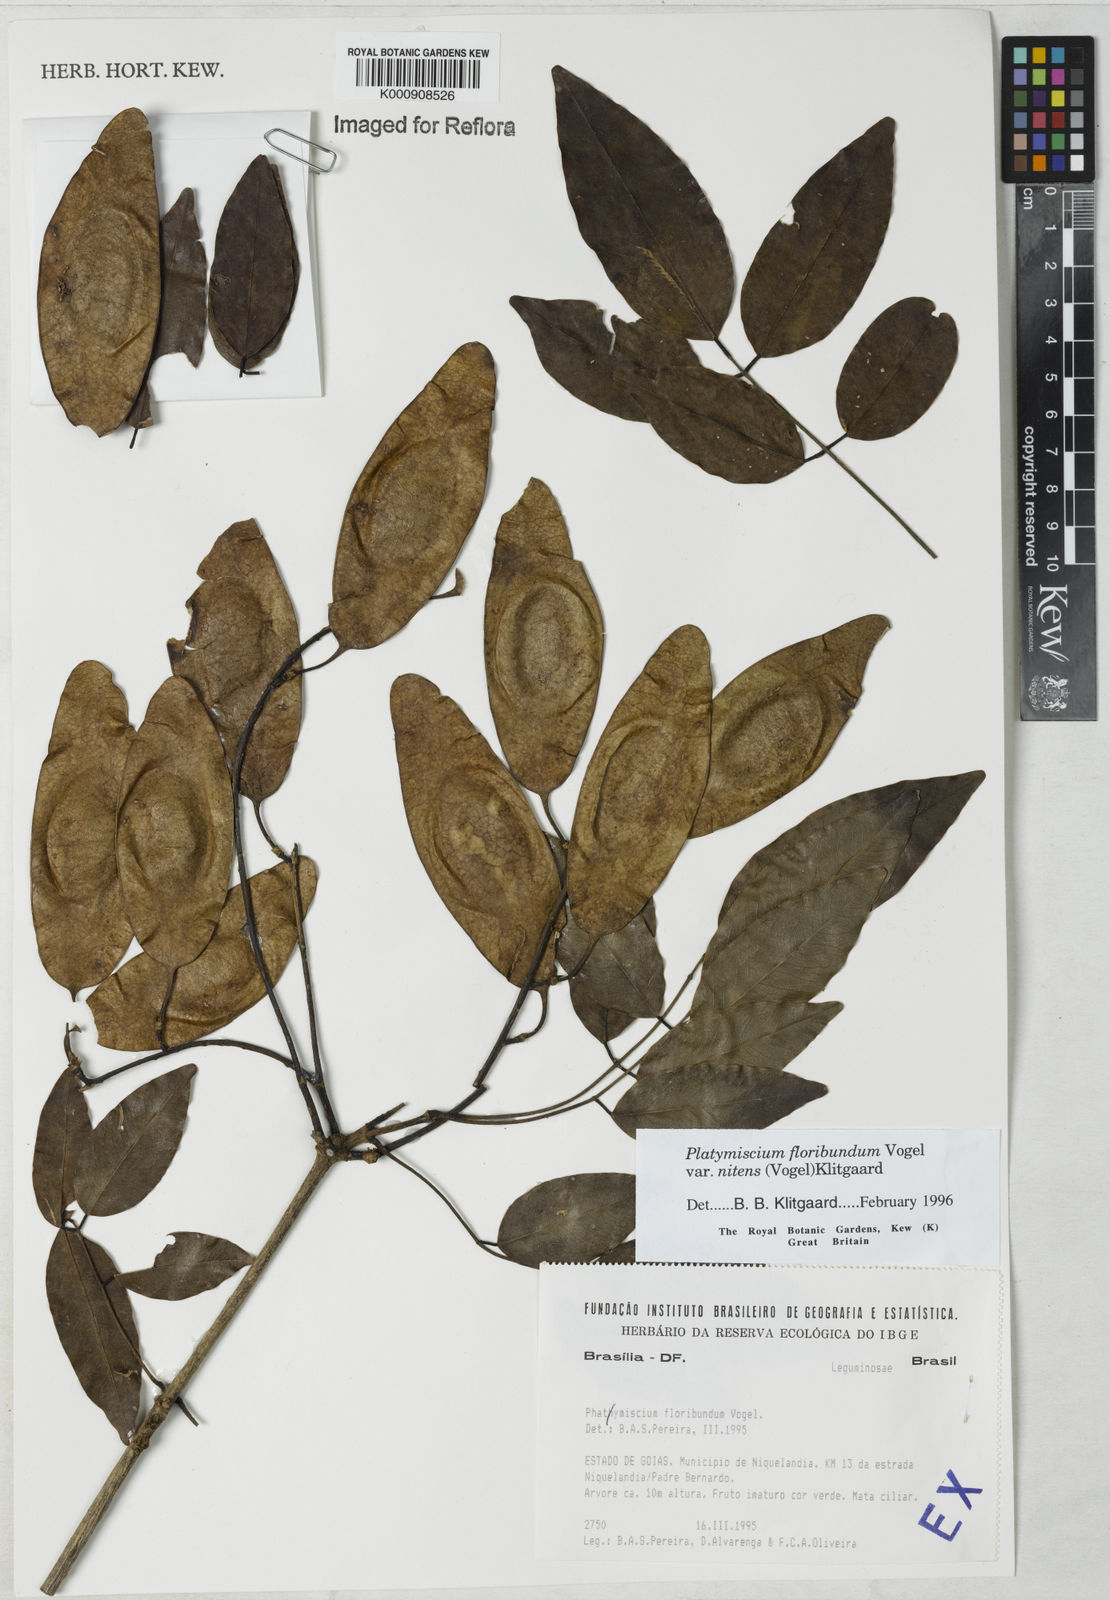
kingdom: Plantae
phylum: Tracheophyta
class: Magnoliopsida
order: Fabales
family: Fabaceae
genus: Platymiscium
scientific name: Platymiscium floribundum
